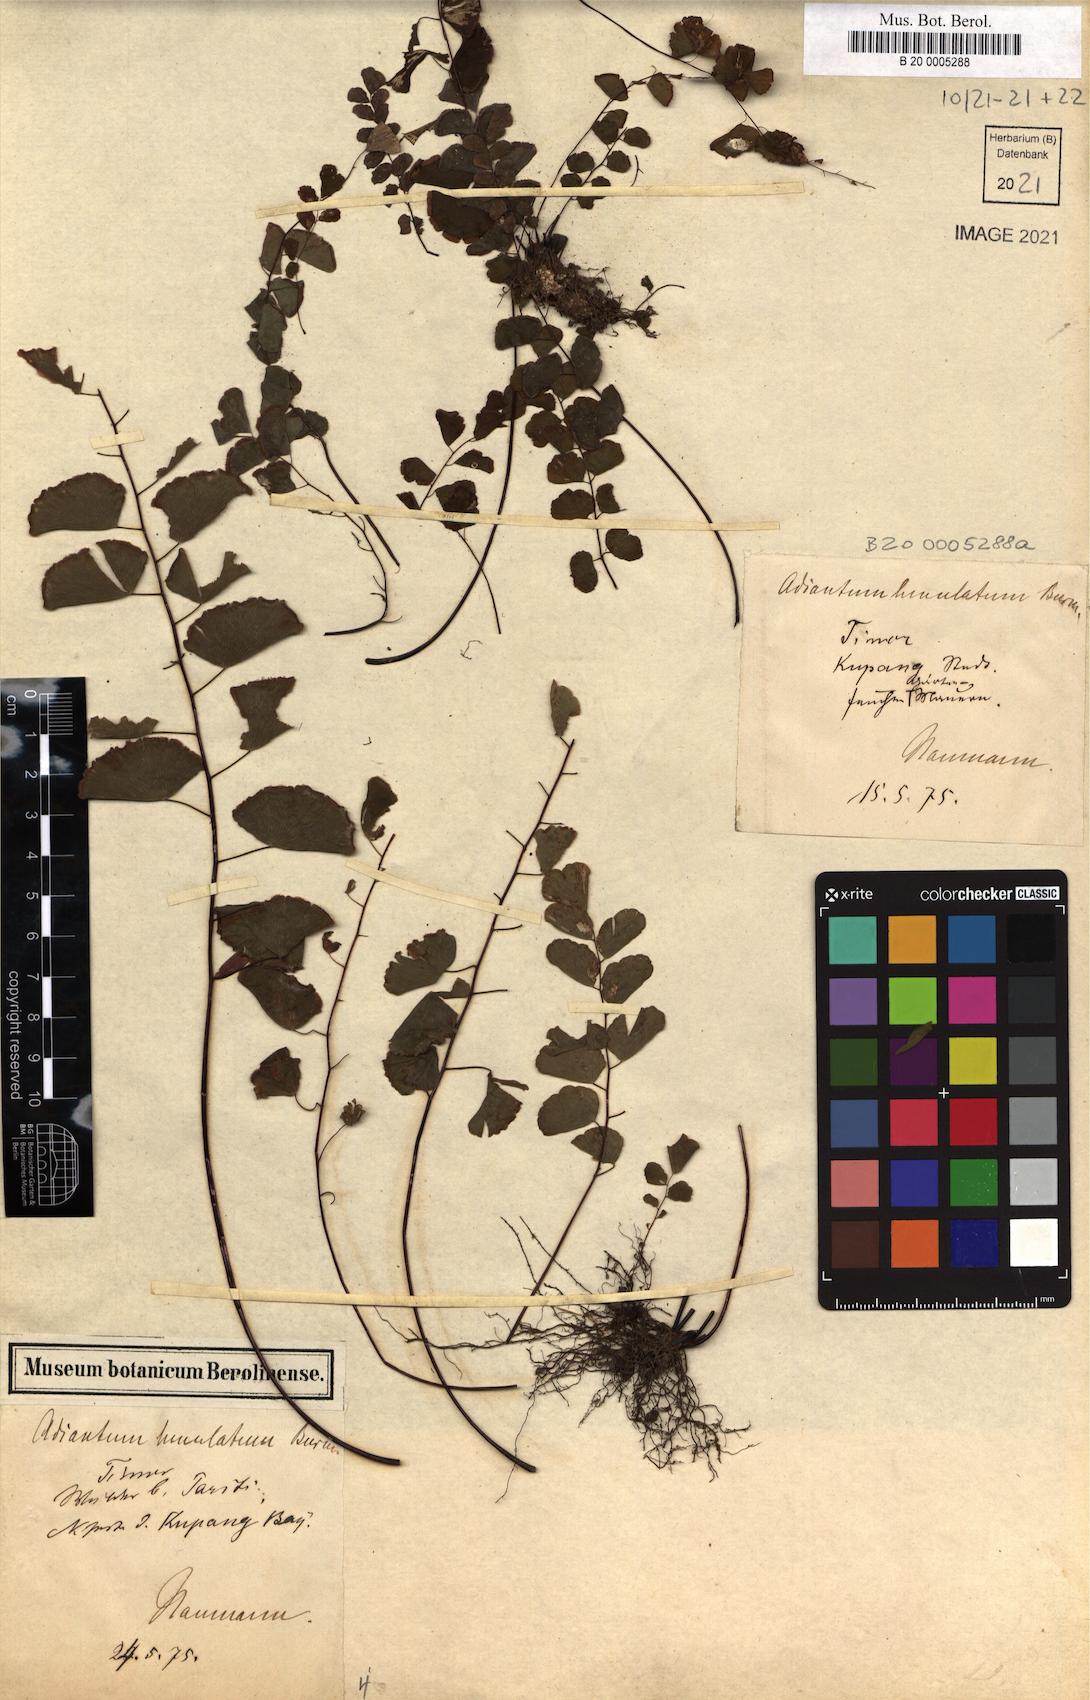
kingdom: Plantae
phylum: Tracheophyta
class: Polypodiopsida
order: Polypodiales
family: Pteridaceae
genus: Adiantum
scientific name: Adiantum philippense
